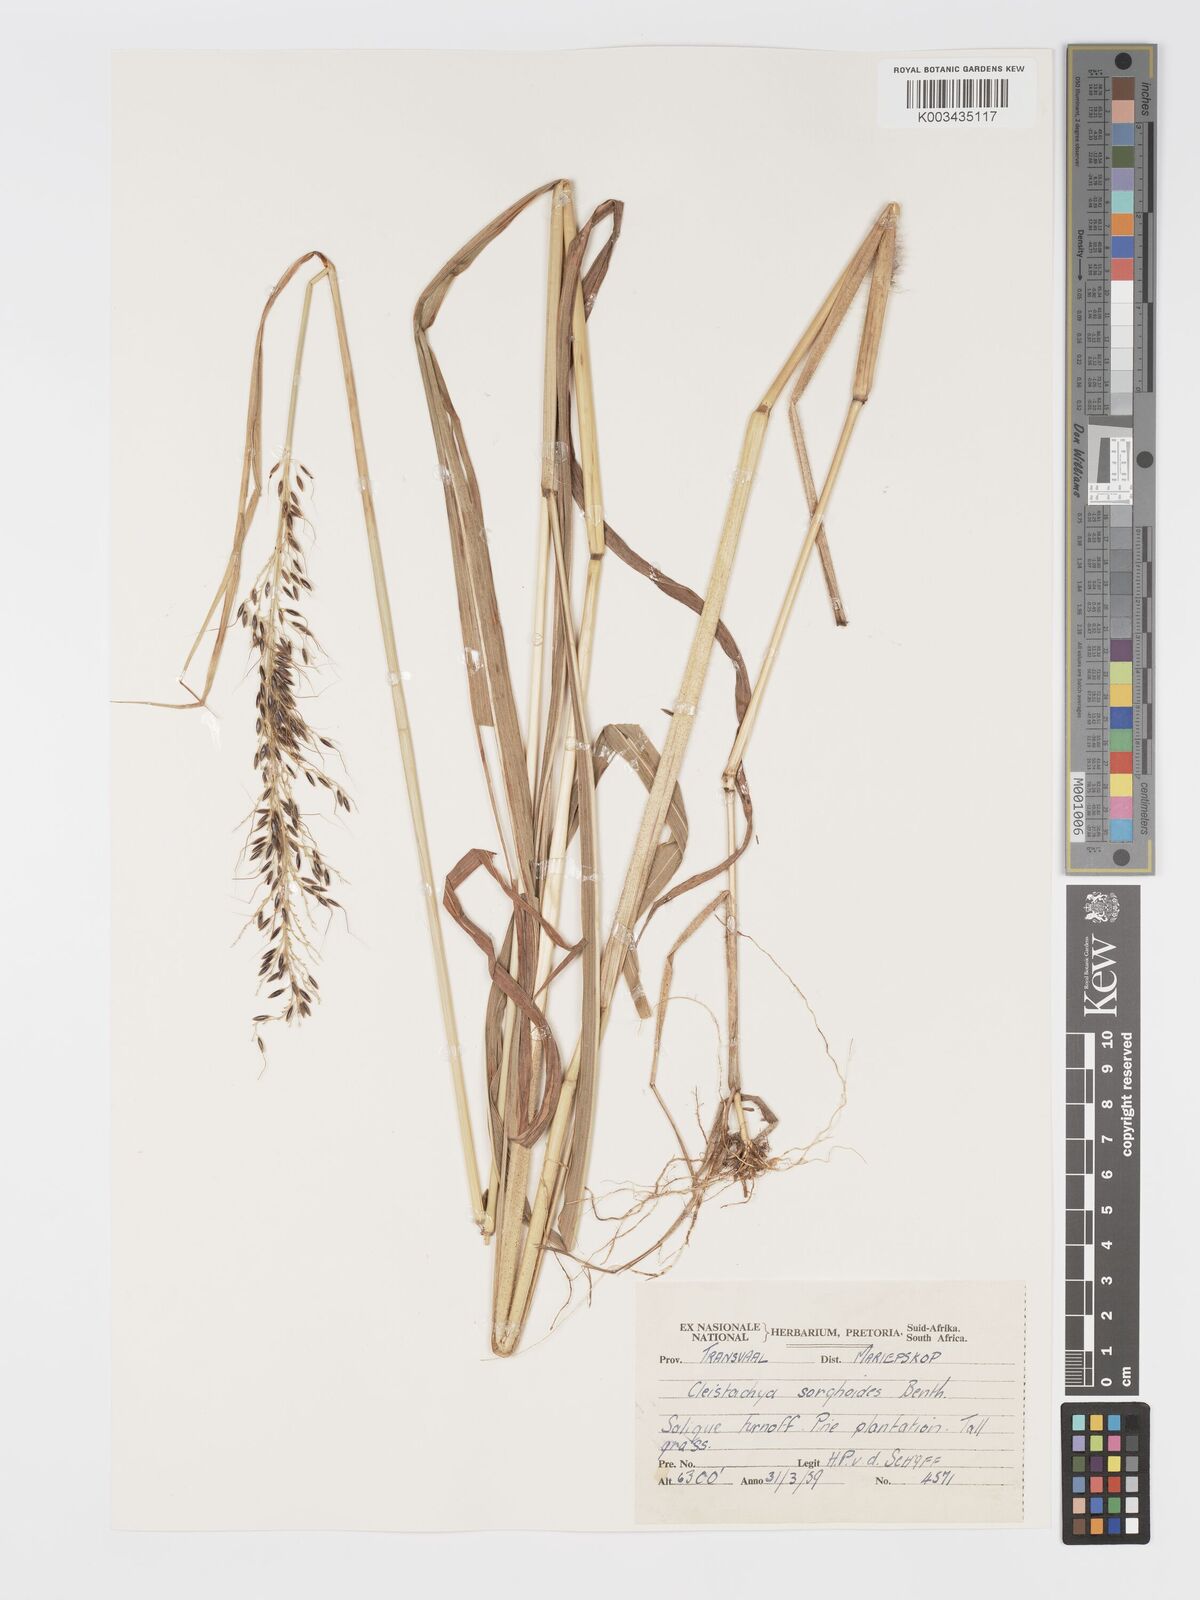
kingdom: Plantae
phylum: Tracheophyta
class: Liliopsida
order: Poales
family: Poaceae
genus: Cleistachne
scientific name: Cleistachne sorghoides
